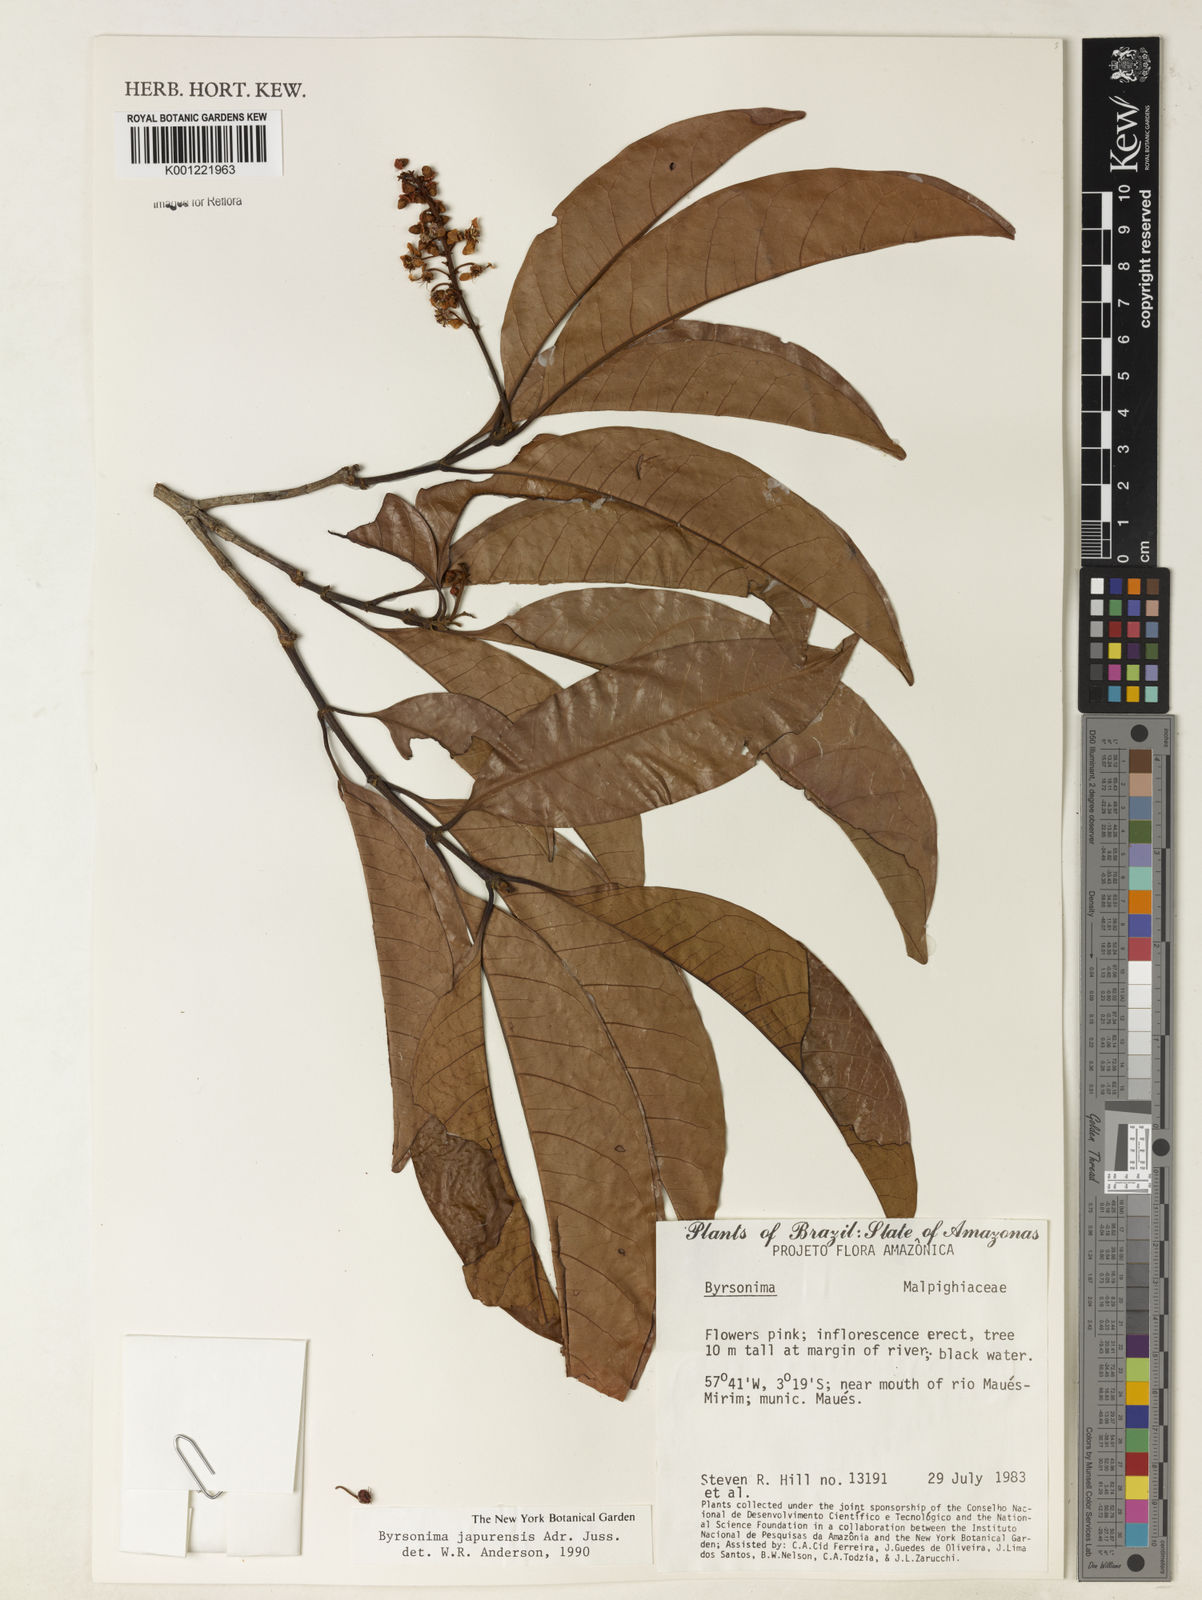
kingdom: Plantae
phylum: Tracheophyta
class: Magnoliopsida
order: Malpighiales
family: Malpighiaceae
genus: Byrsonima
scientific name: Byrsonima japurensis
